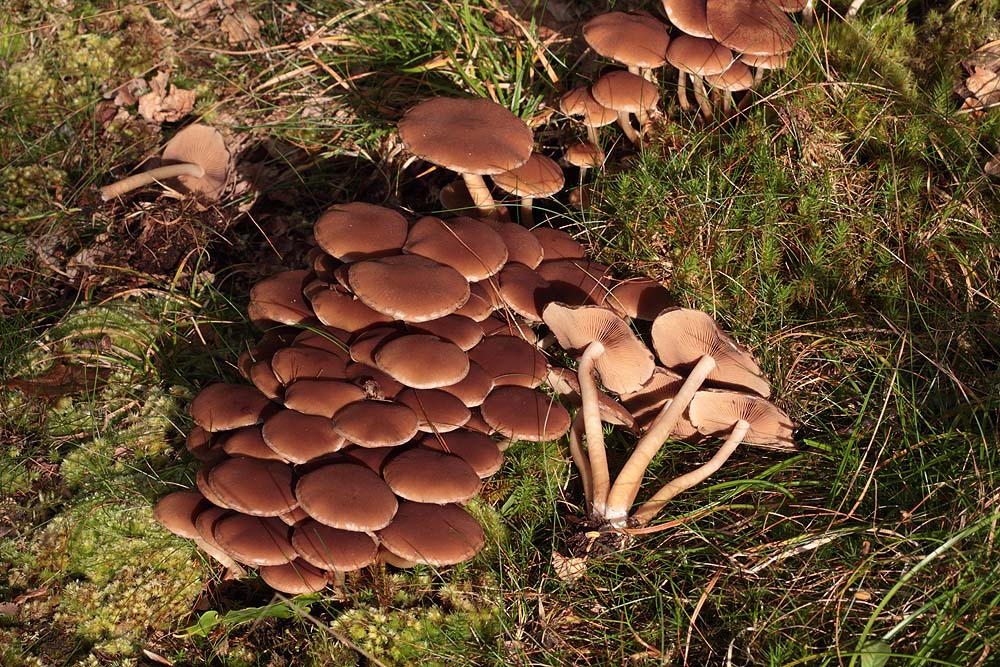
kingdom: Fungi
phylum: Basidiomycota
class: Agaricomycetes
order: Agaricales
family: Psathyrellaceae
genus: Psathyrella
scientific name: Psathyrella piluliformis
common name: lysstokket mørkhat
